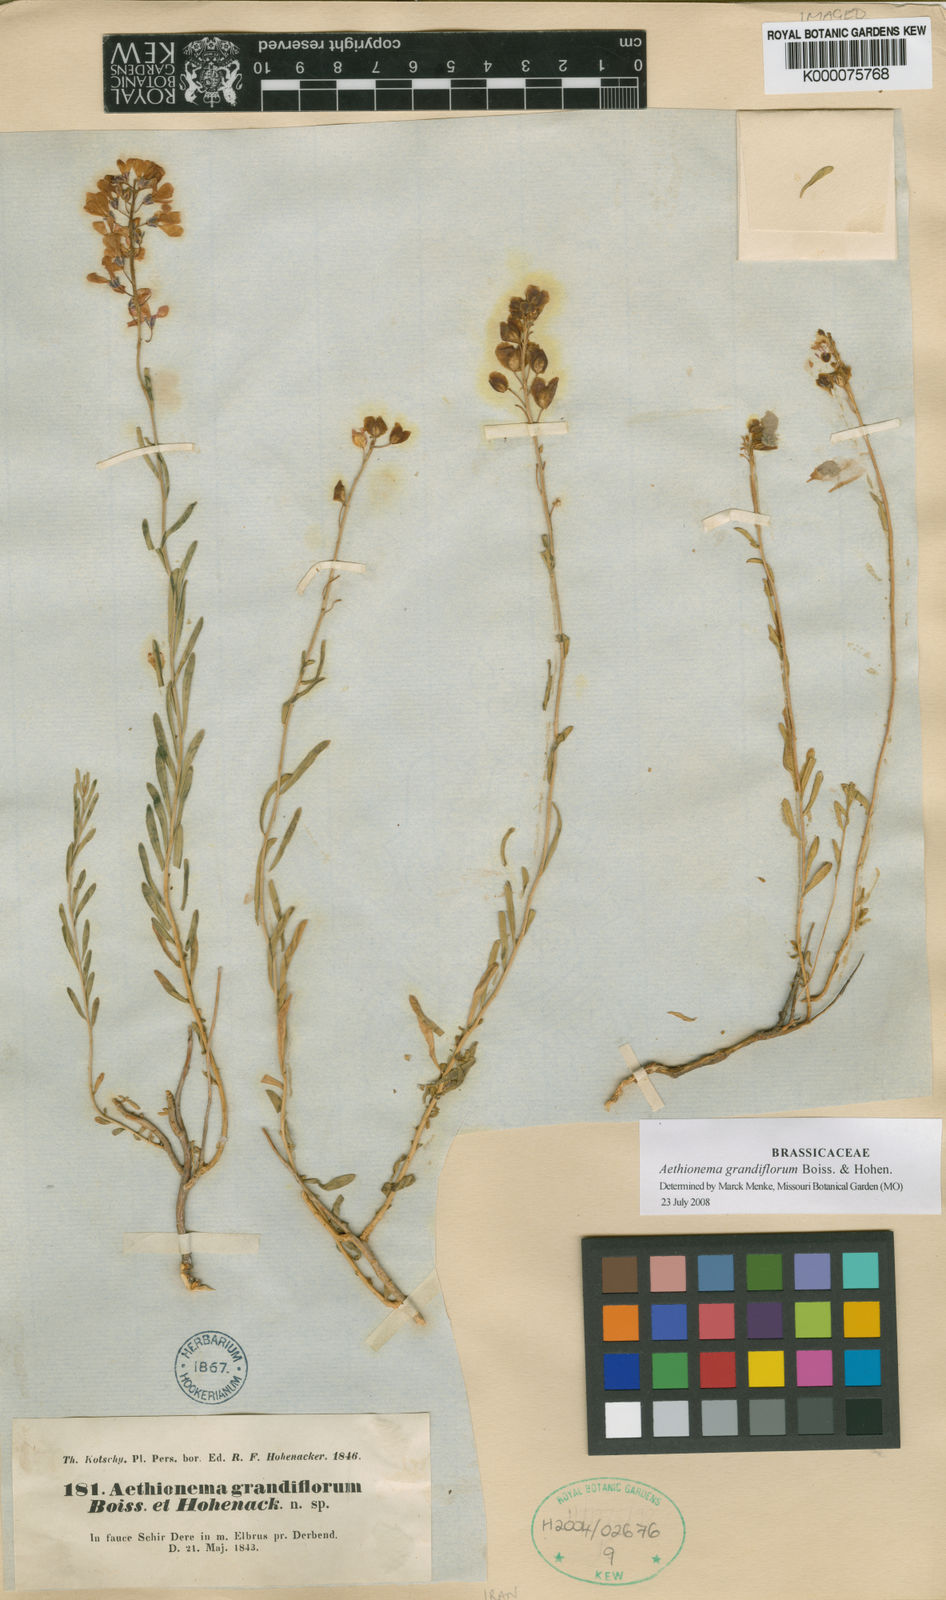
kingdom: Plantae
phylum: Tracheophyta
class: Magnoliopsida
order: Brassicales
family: Brassicaceae
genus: Aethionema
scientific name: Aethionema grandiflorum
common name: Persian stonecress
